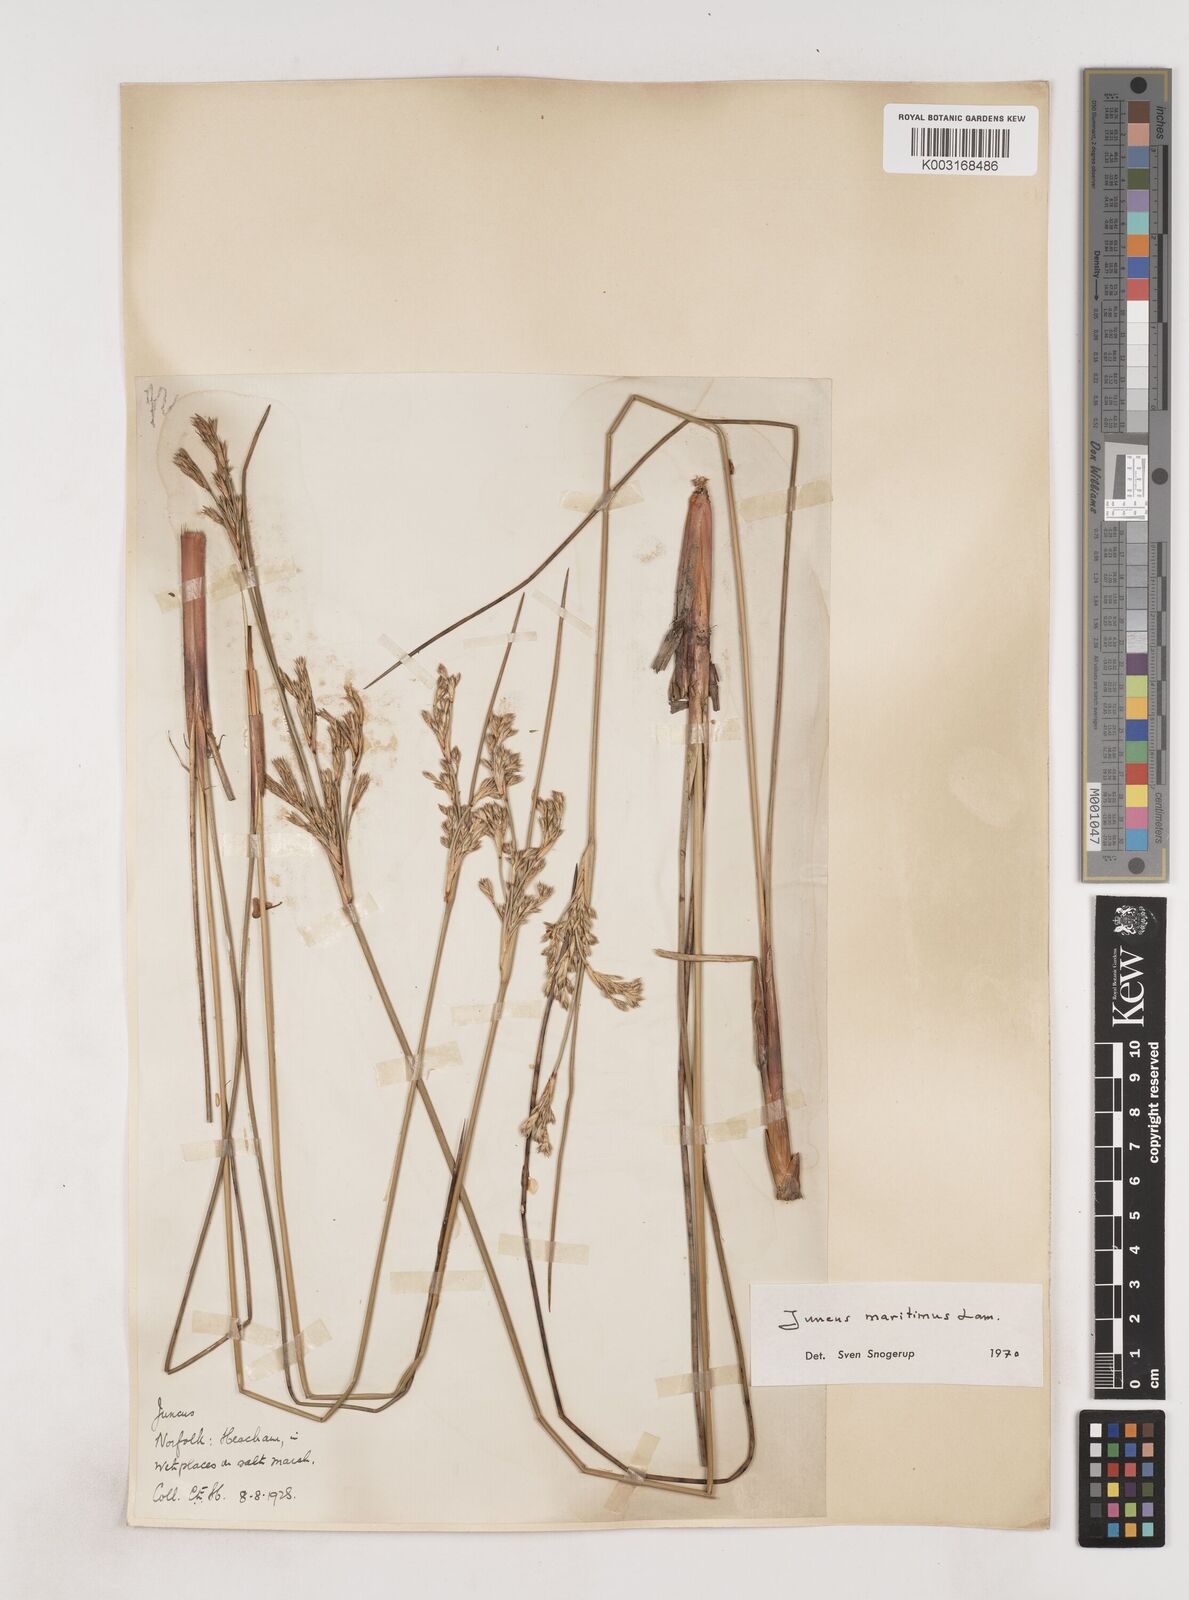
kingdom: Plantae
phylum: Tracheophyta
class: Liliopsida
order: Poales
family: Juncaceae
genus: Juncus
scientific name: Juncus maritimus
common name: Sea rush
